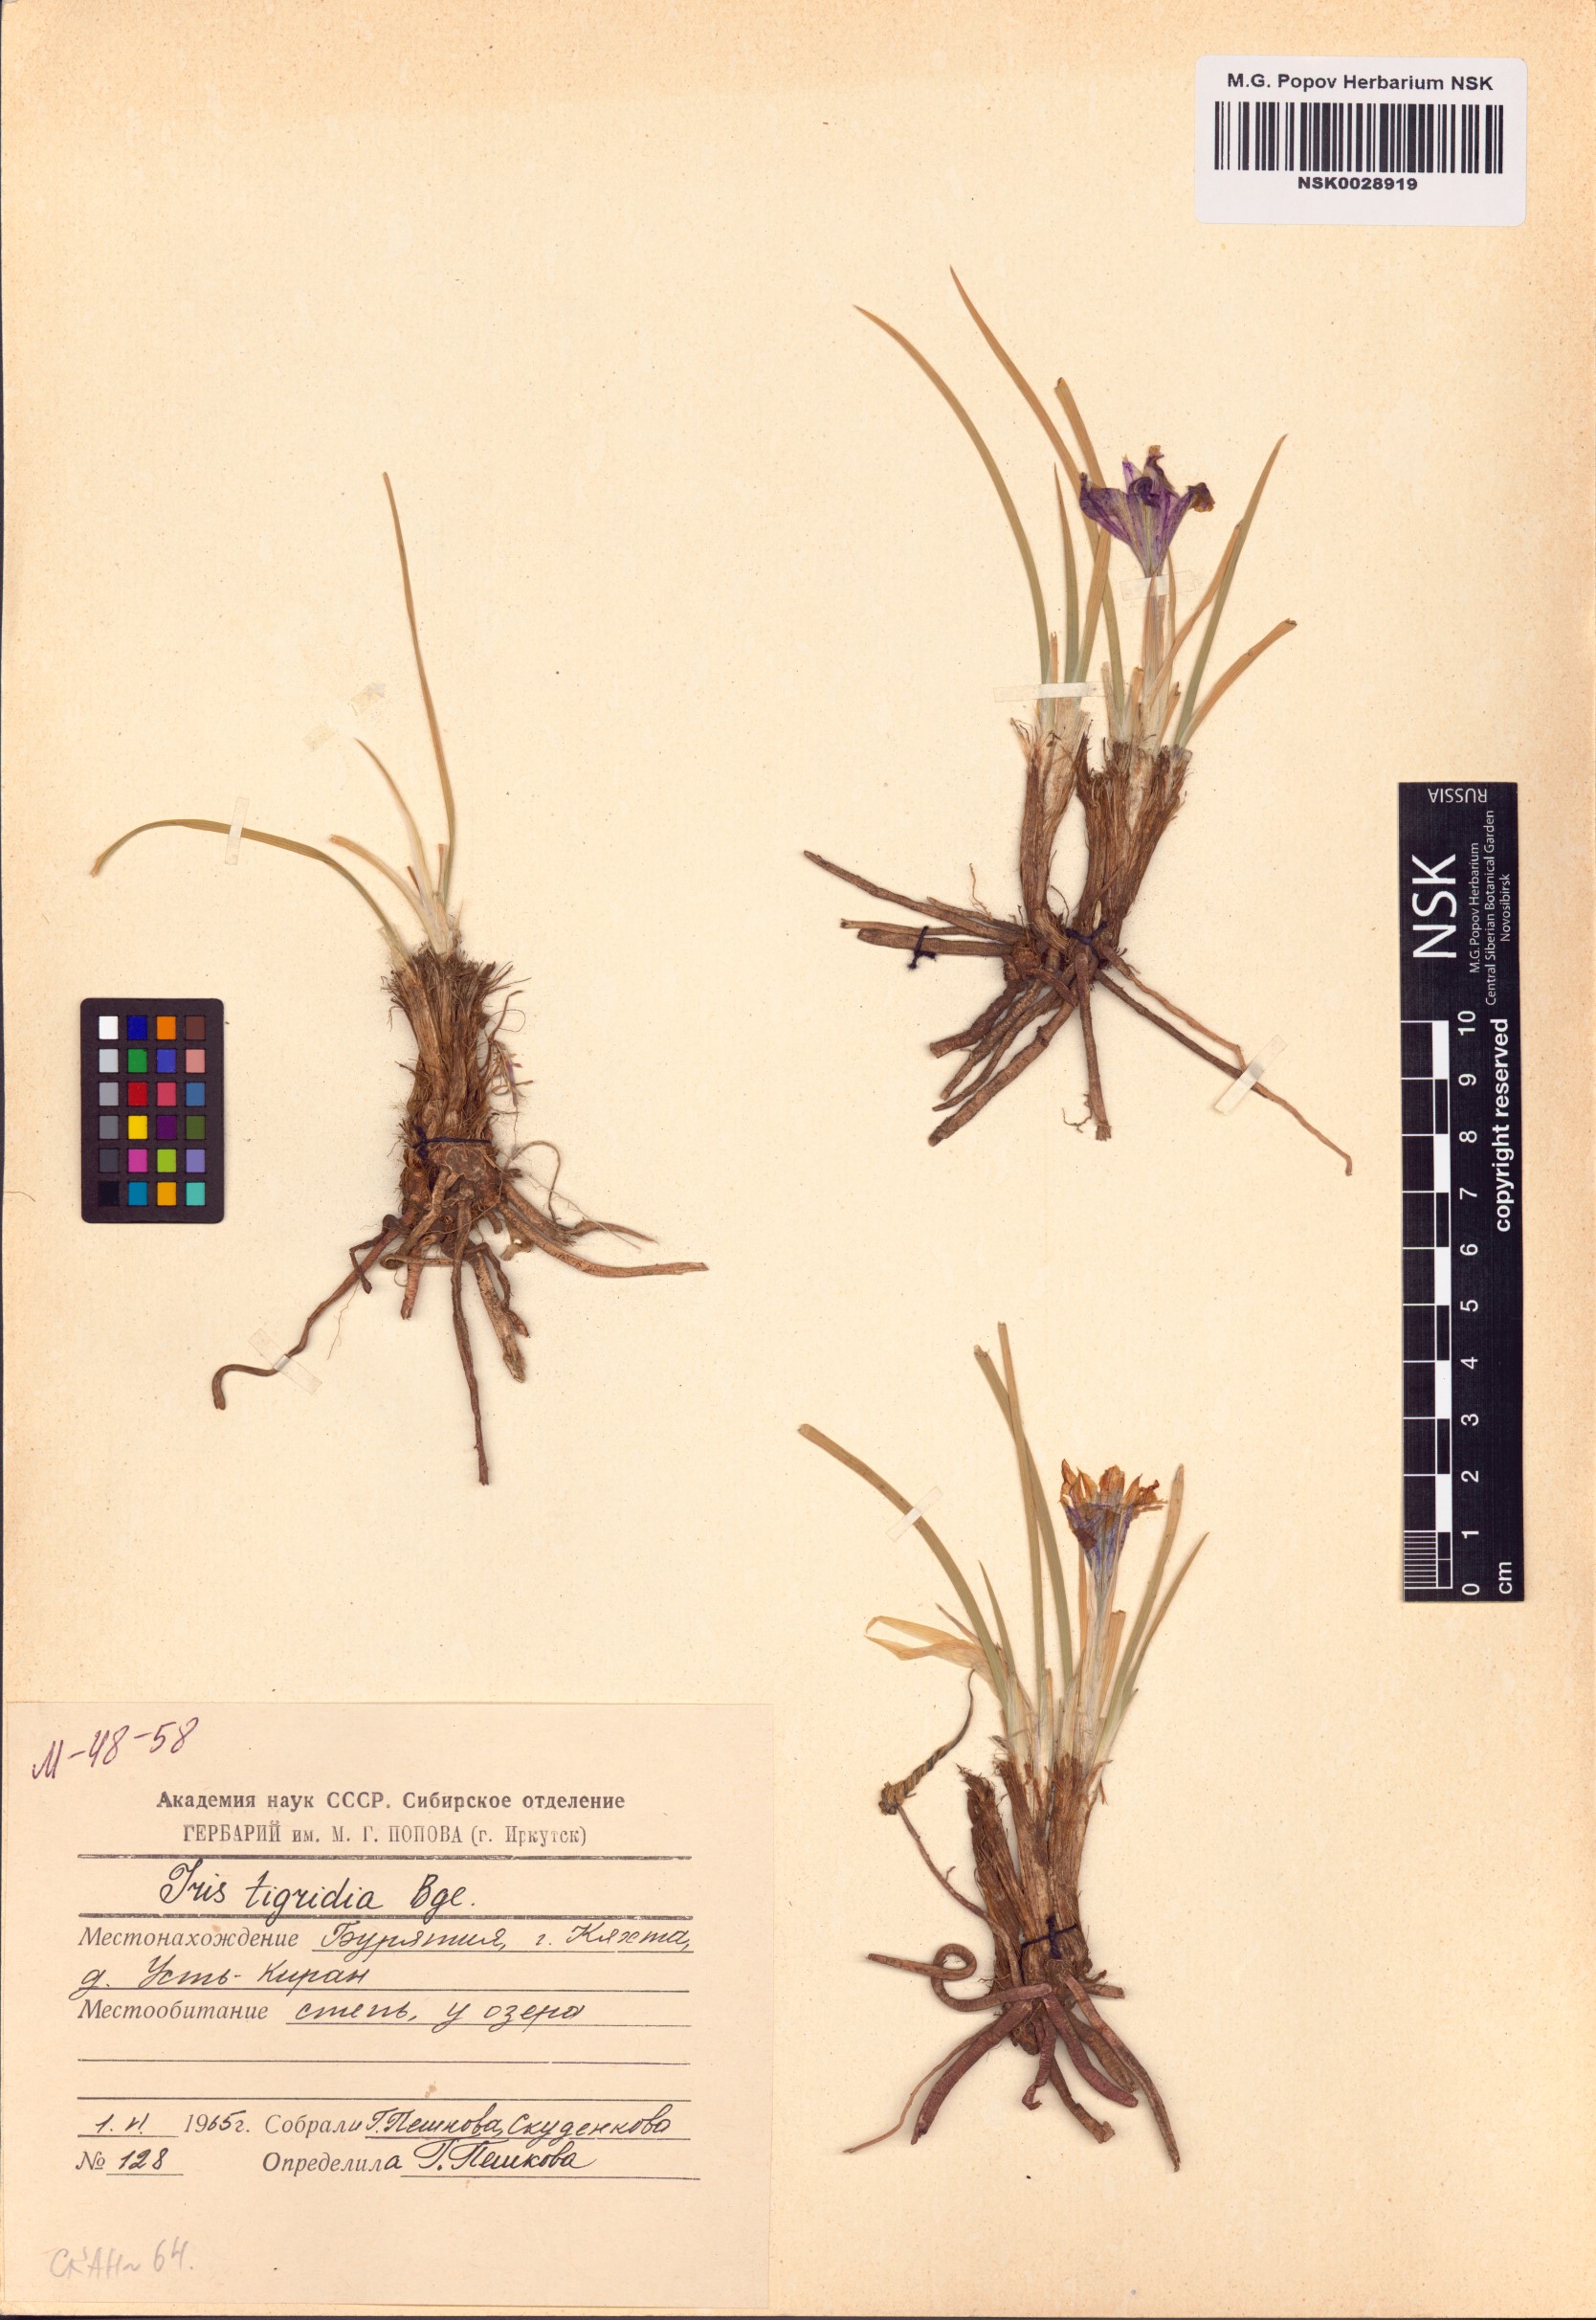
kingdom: Plantae
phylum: Tracheophyta
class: Liliopsida
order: Asparagales
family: Iridaceae
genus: Iris
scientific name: Iris tigridia
